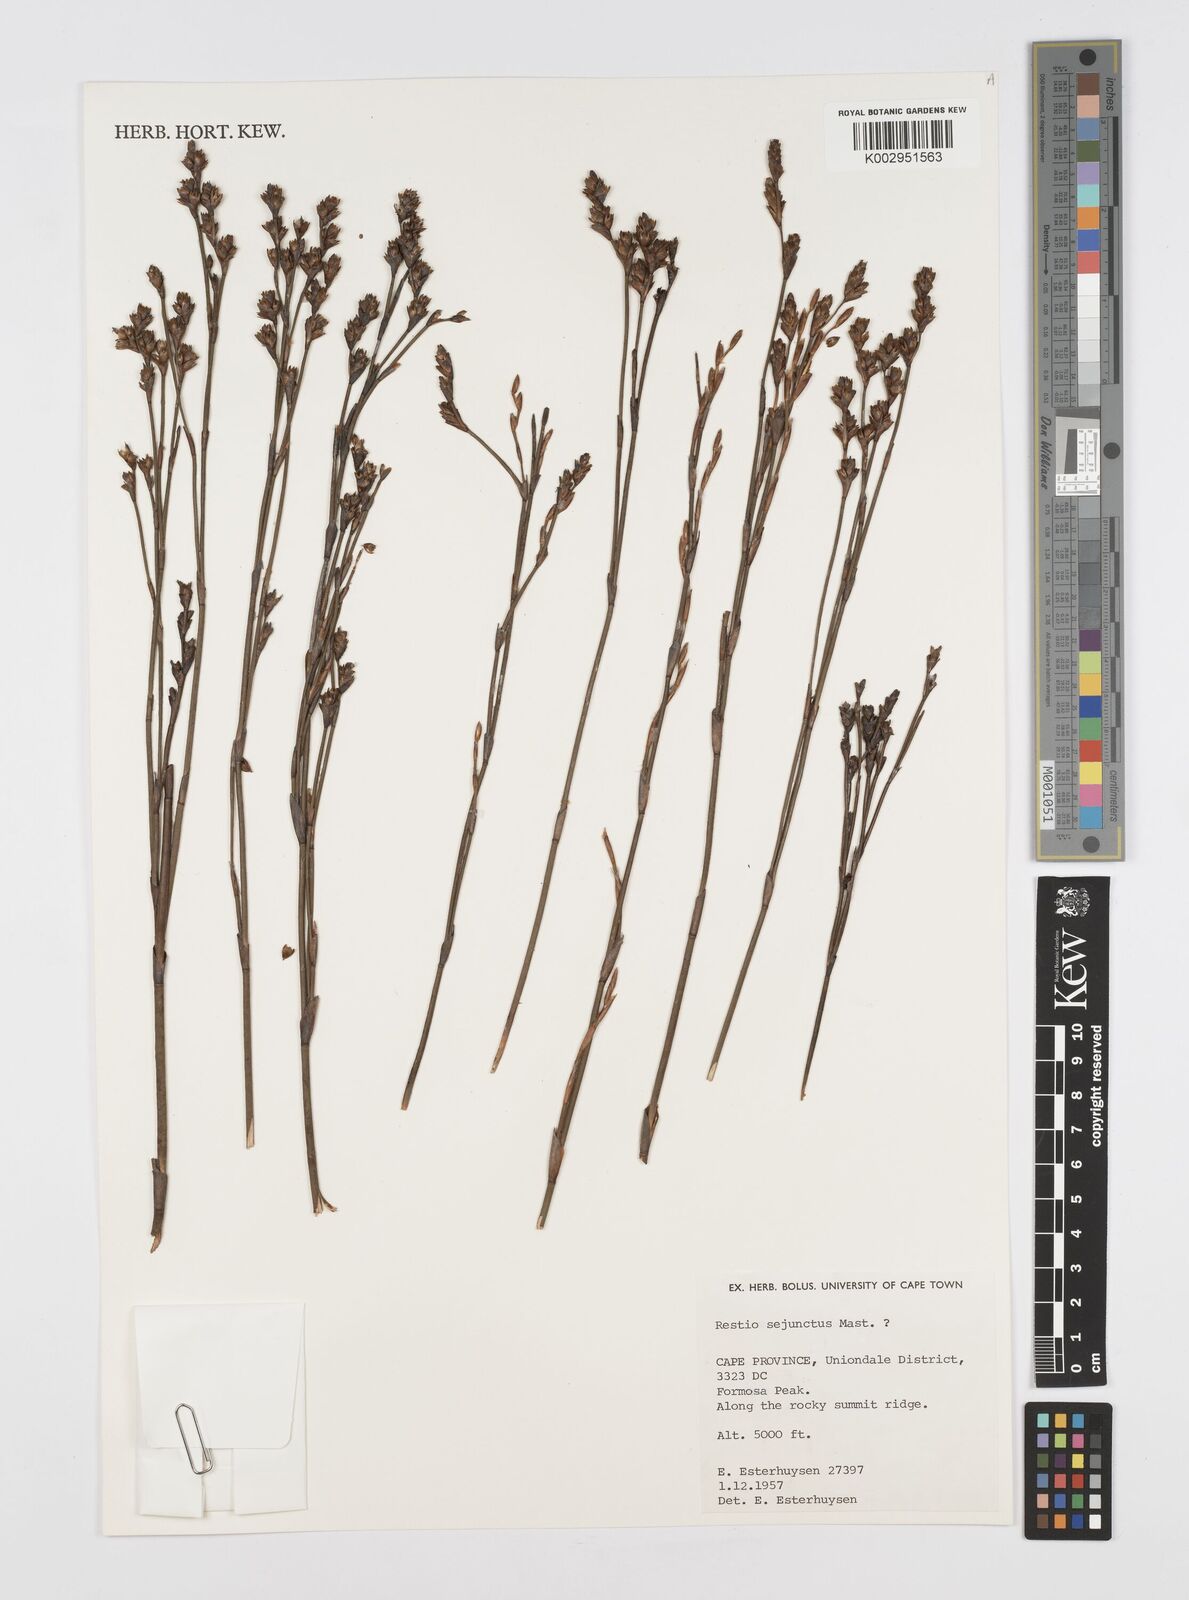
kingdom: Plantae
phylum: Tracheophyta
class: Liliopsida
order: Poales
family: Restionaceae
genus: Restio
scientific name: Restio sejunctus
